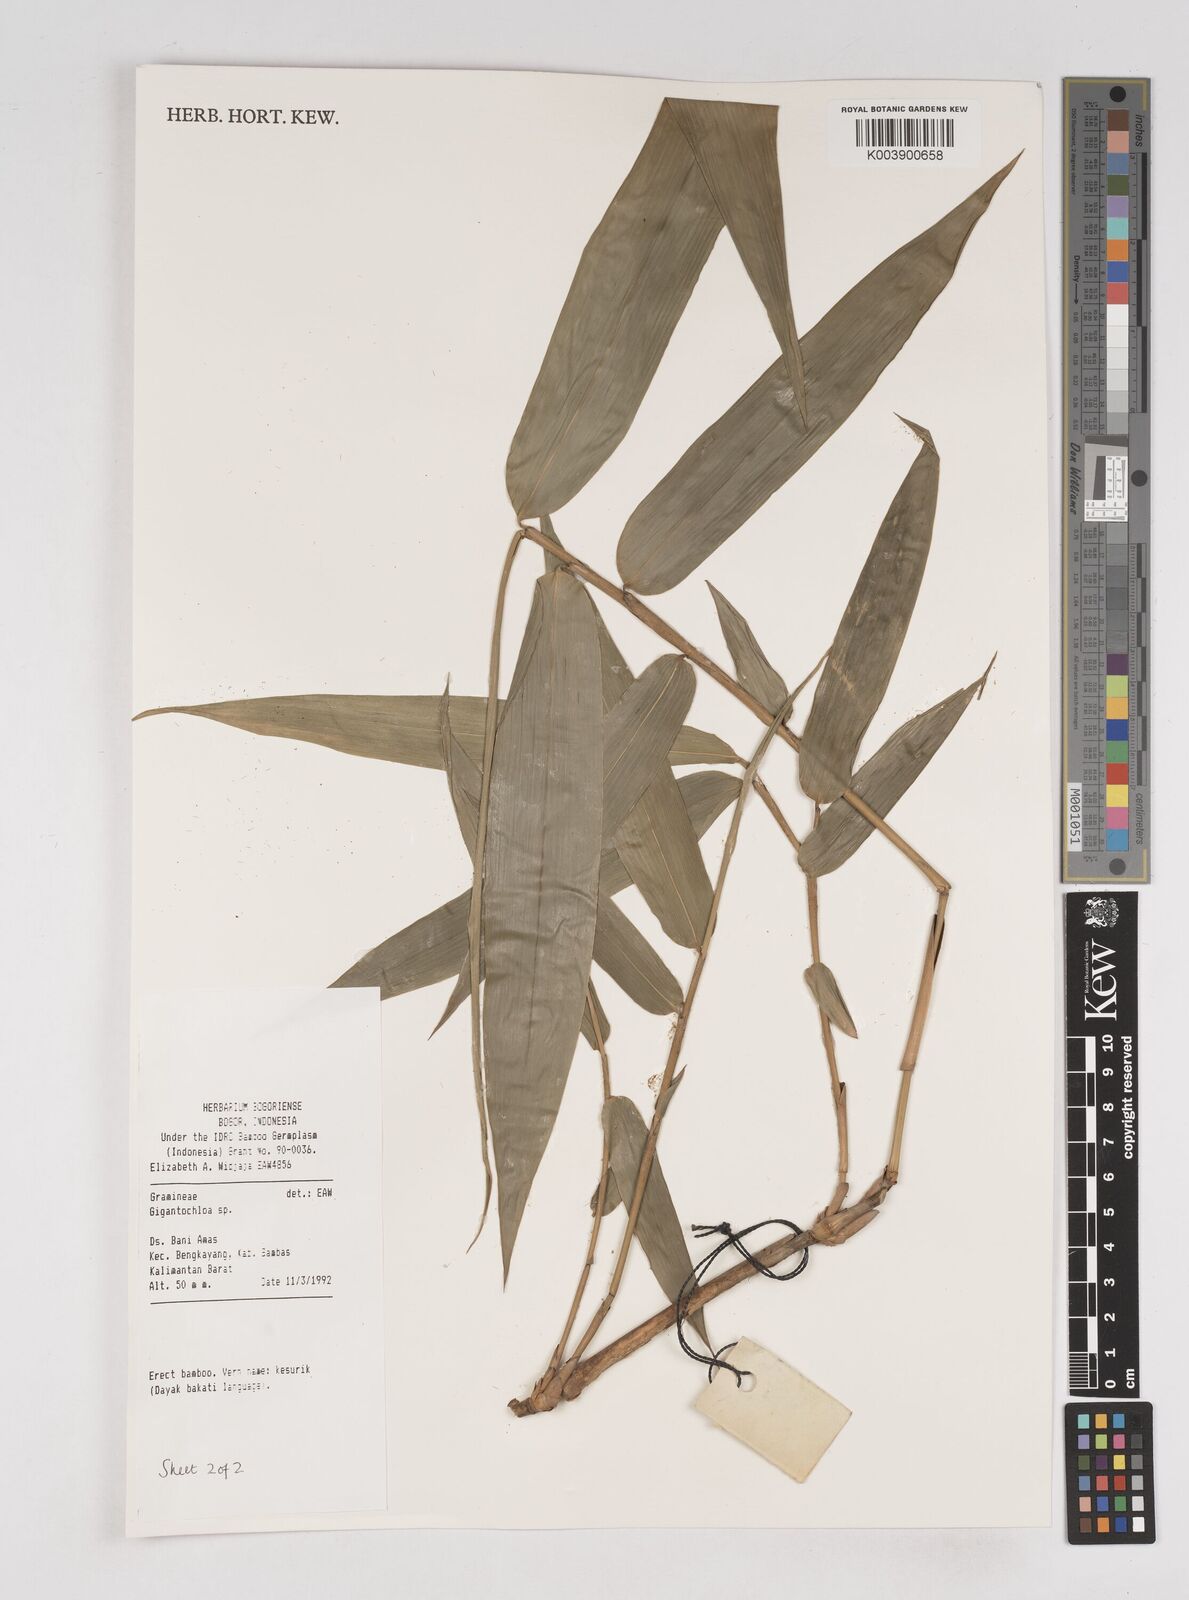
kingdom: Plantae
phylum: Tracheophyta
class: Liliopsida
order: Poales
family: Poaceae
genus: Gigantochloa
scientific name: Gigantochloa
